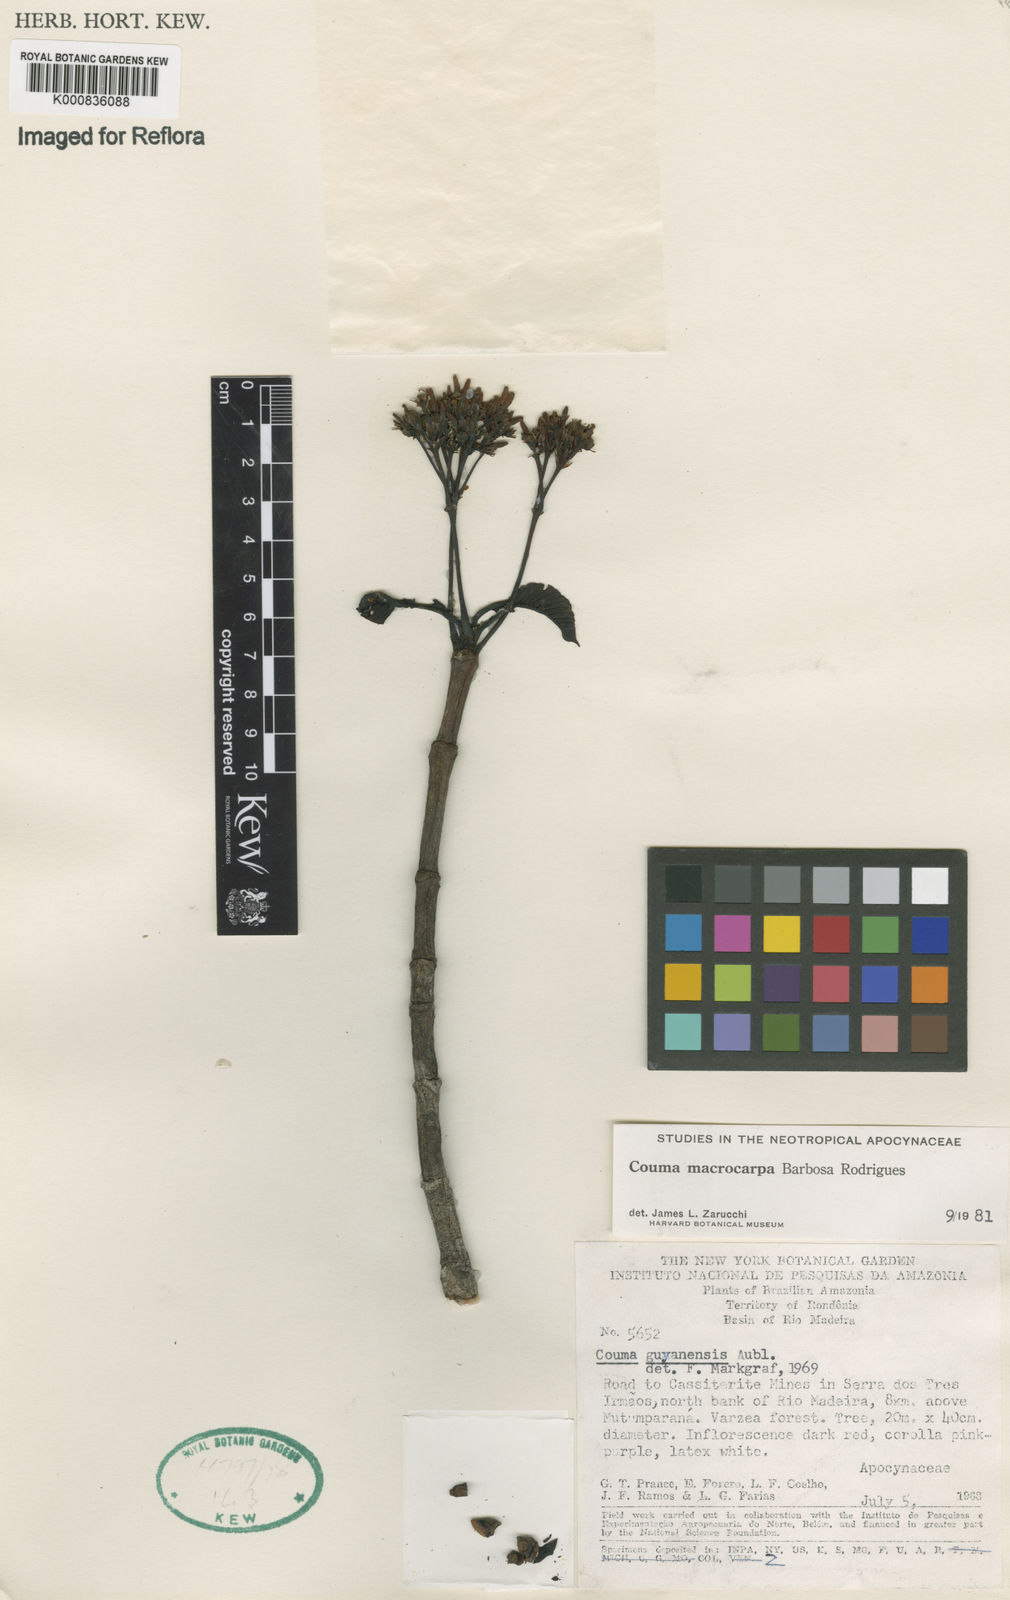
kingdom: Plantae
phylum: Tracheophyta
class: Magnoliopsida
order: Gentianales
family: Apocynaceae
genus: Couma
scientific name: Couma macrocarpa
